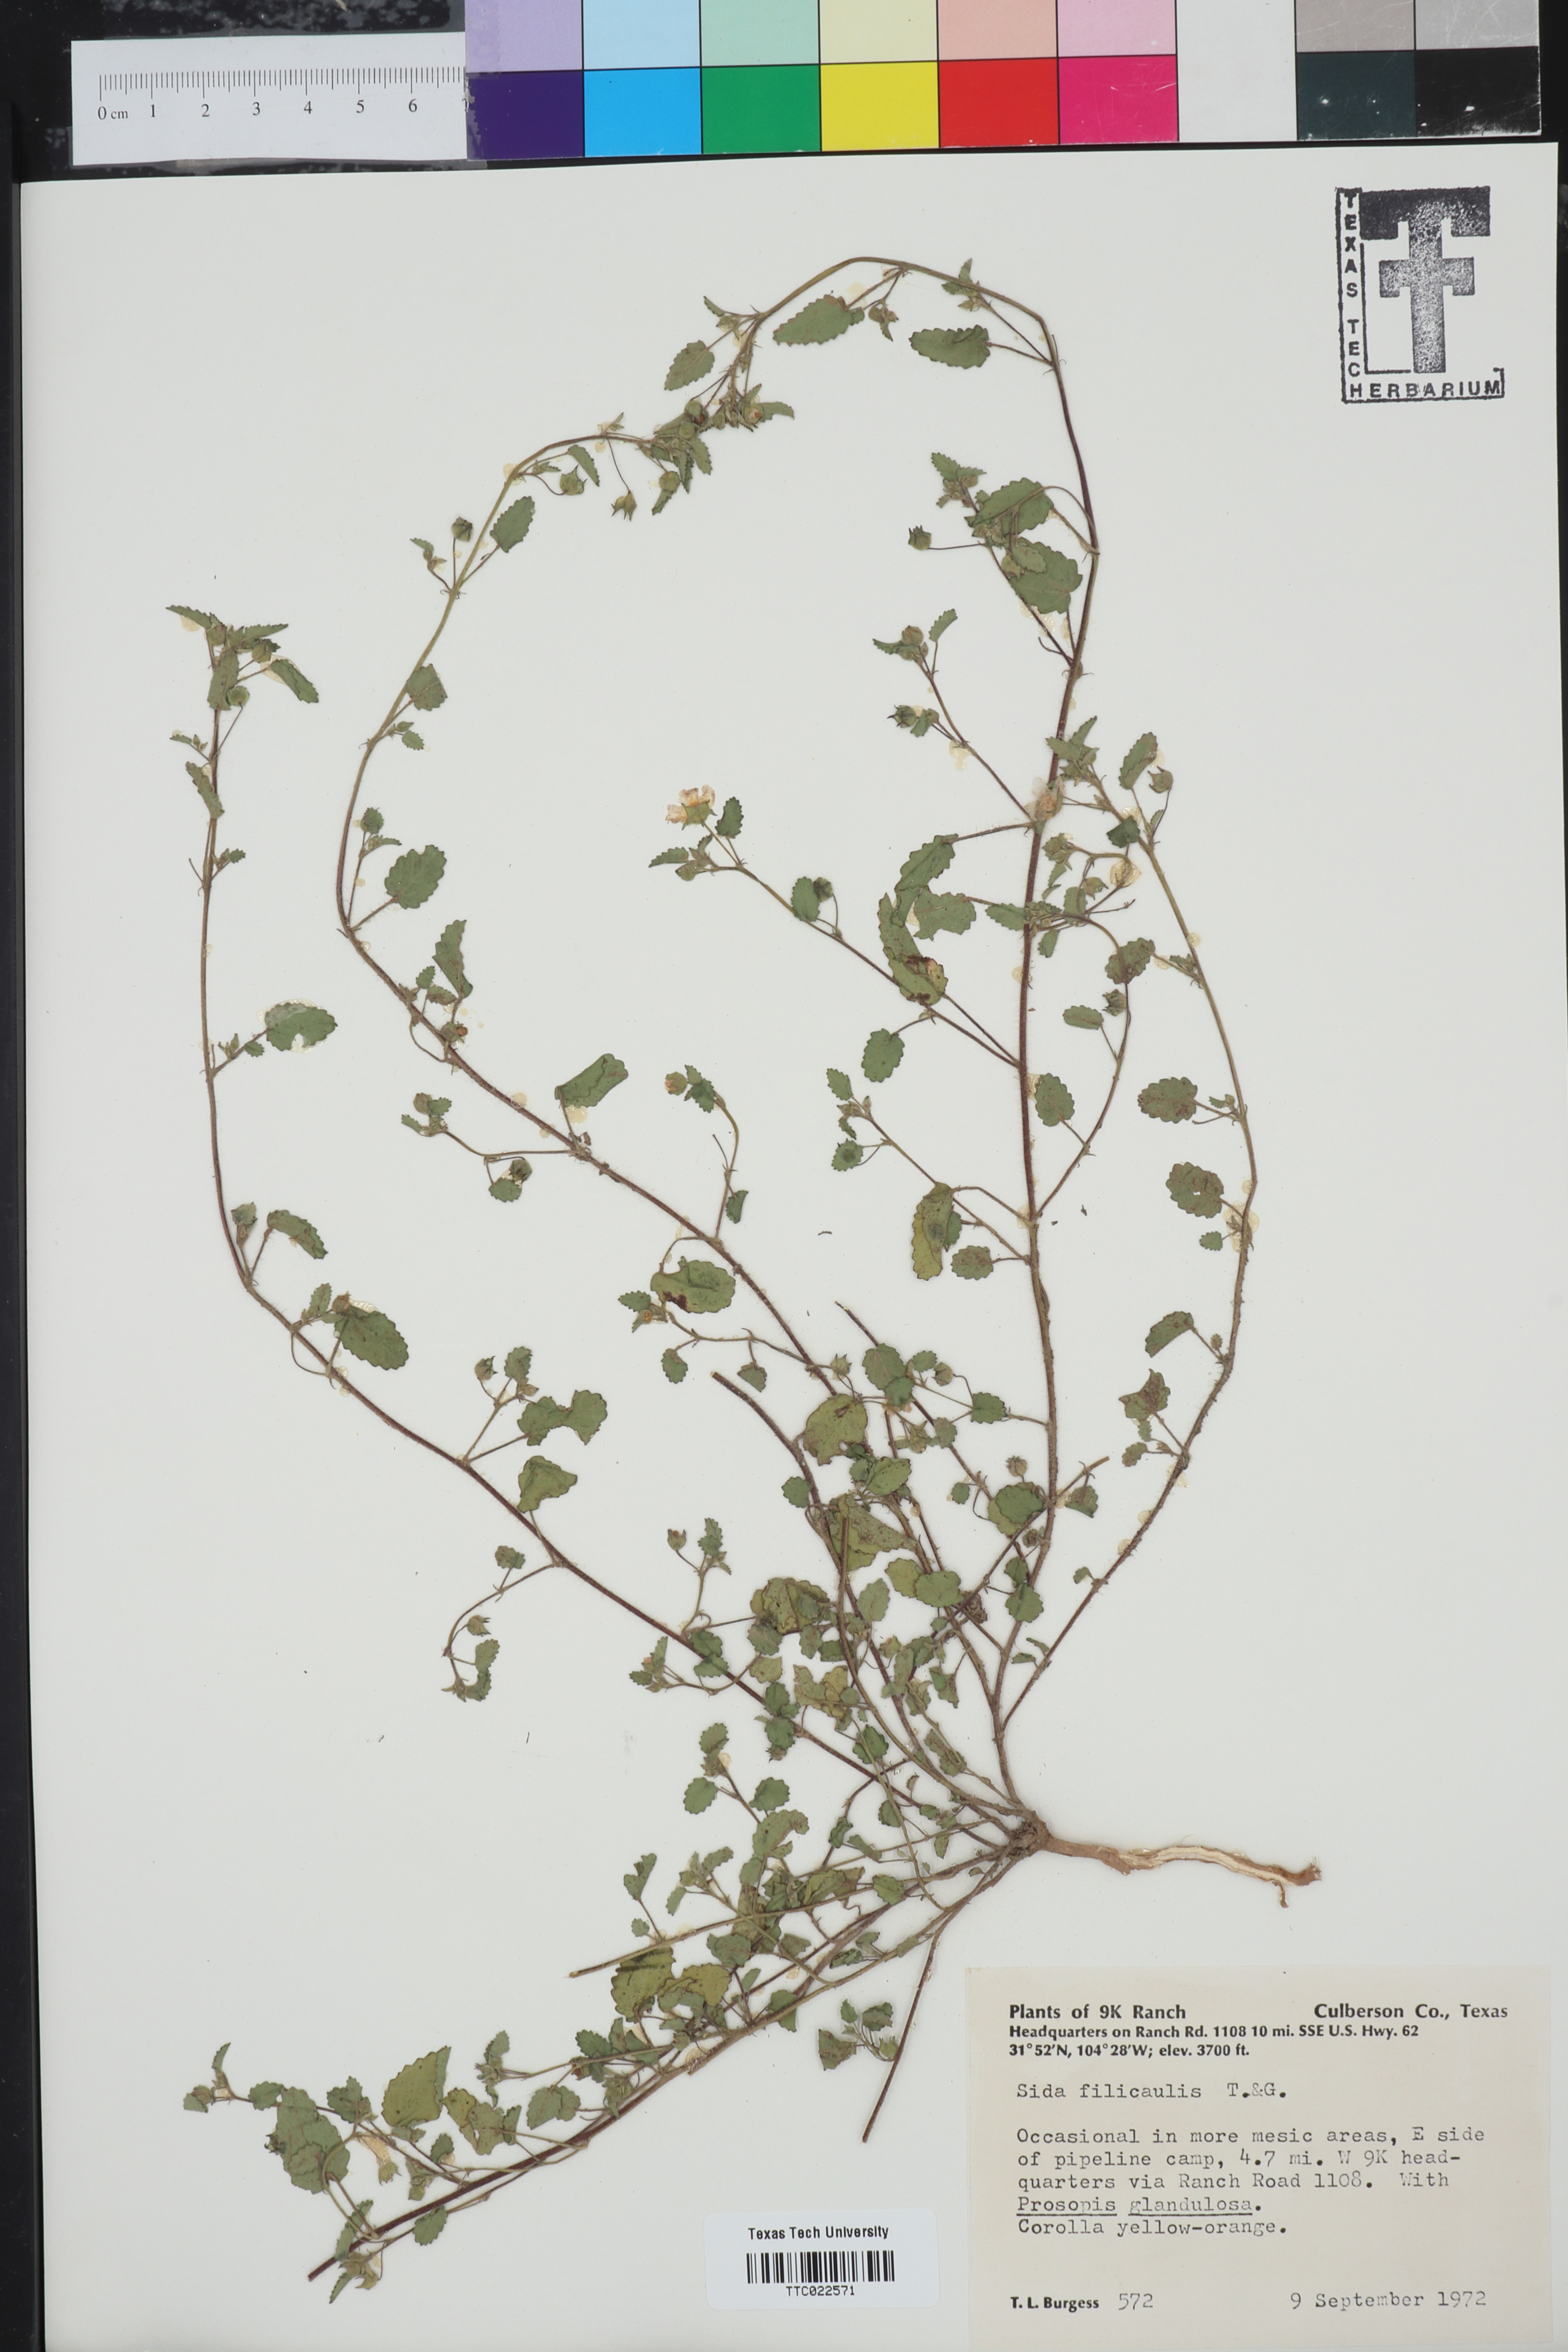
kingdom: Plantae
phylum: Tracheophyta
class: Magnoliopsida
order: Malvales
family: Malvaceae
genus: Sida
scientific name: Sida abutilifolia
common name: Spreading fanpetals
